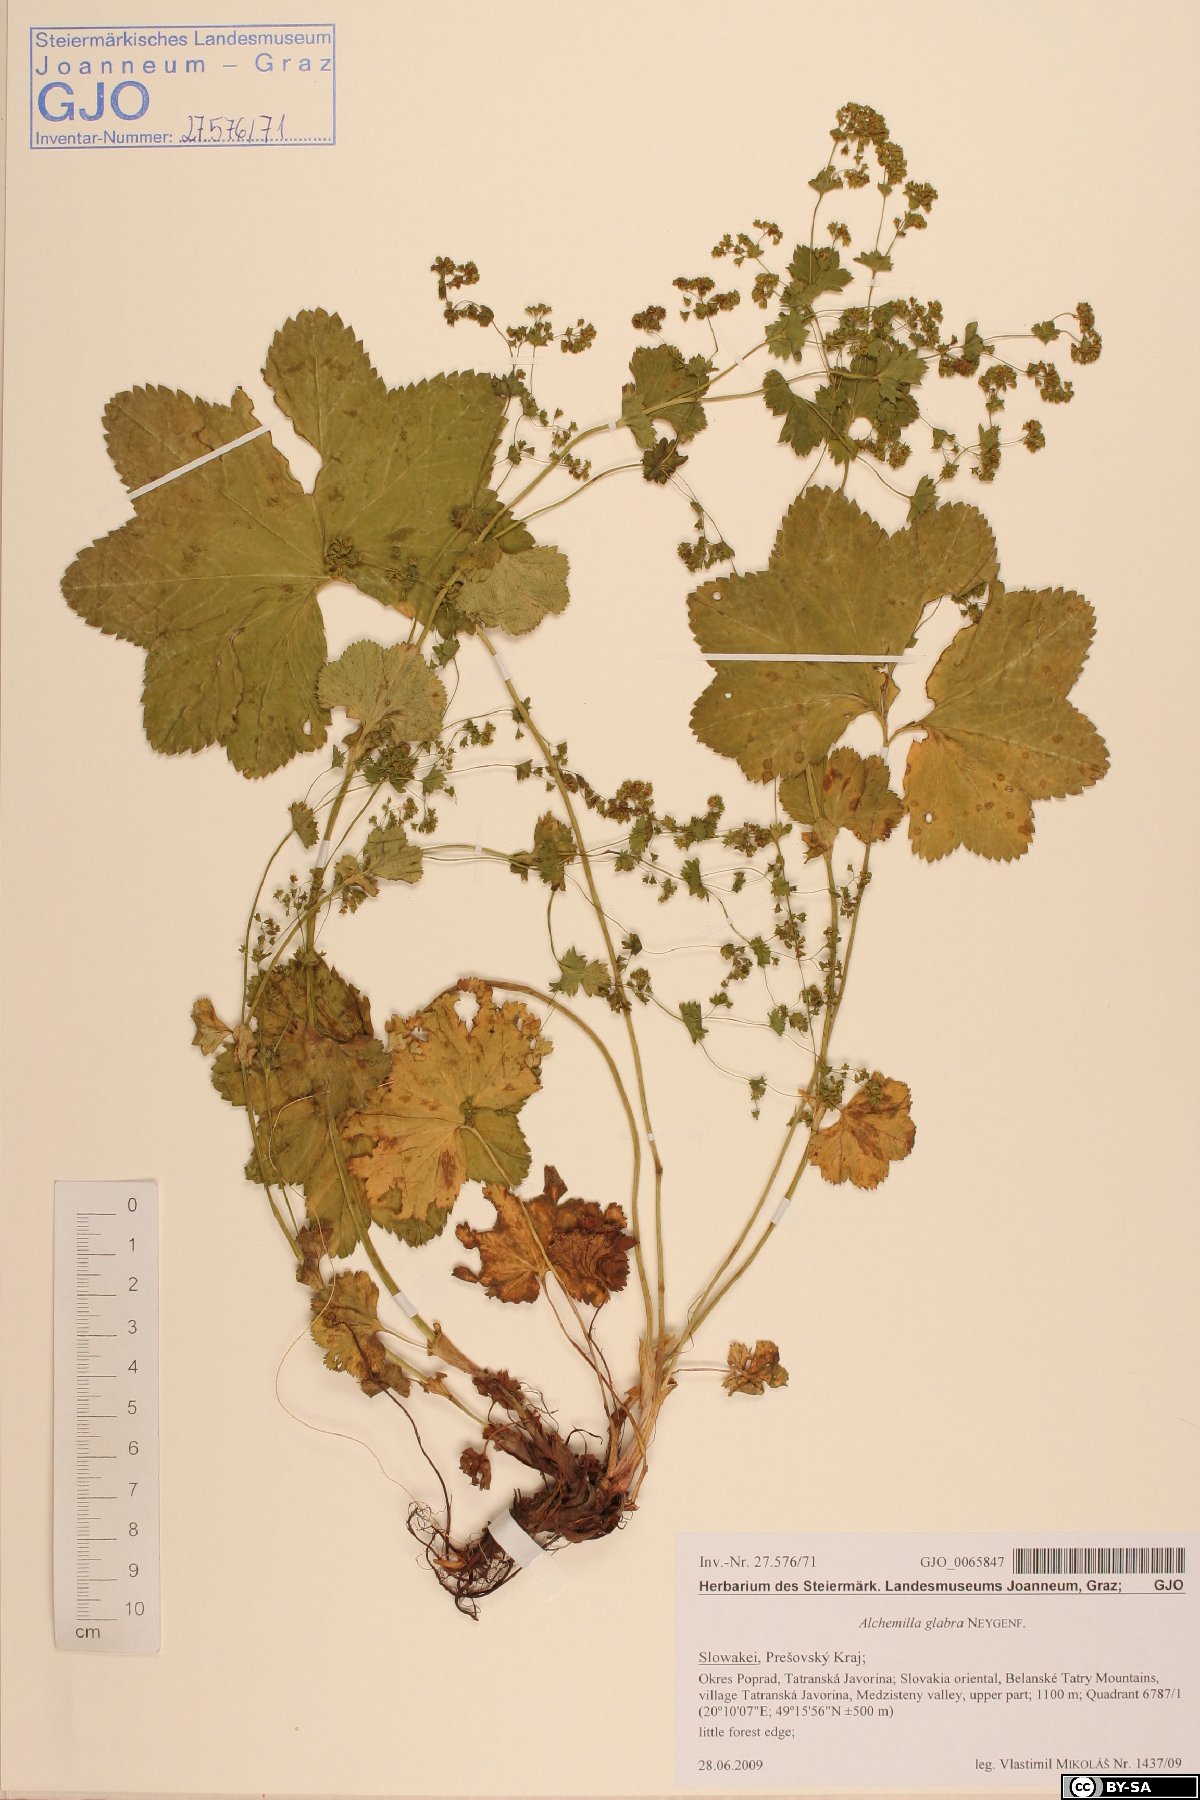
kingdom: Plantae
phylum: Tracheophyta
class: Magnoliopsida
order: Rosales
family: Rosaceae
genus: Alchemilla
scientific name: Alchemilla glabra
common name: Smooth lady's-mantle
